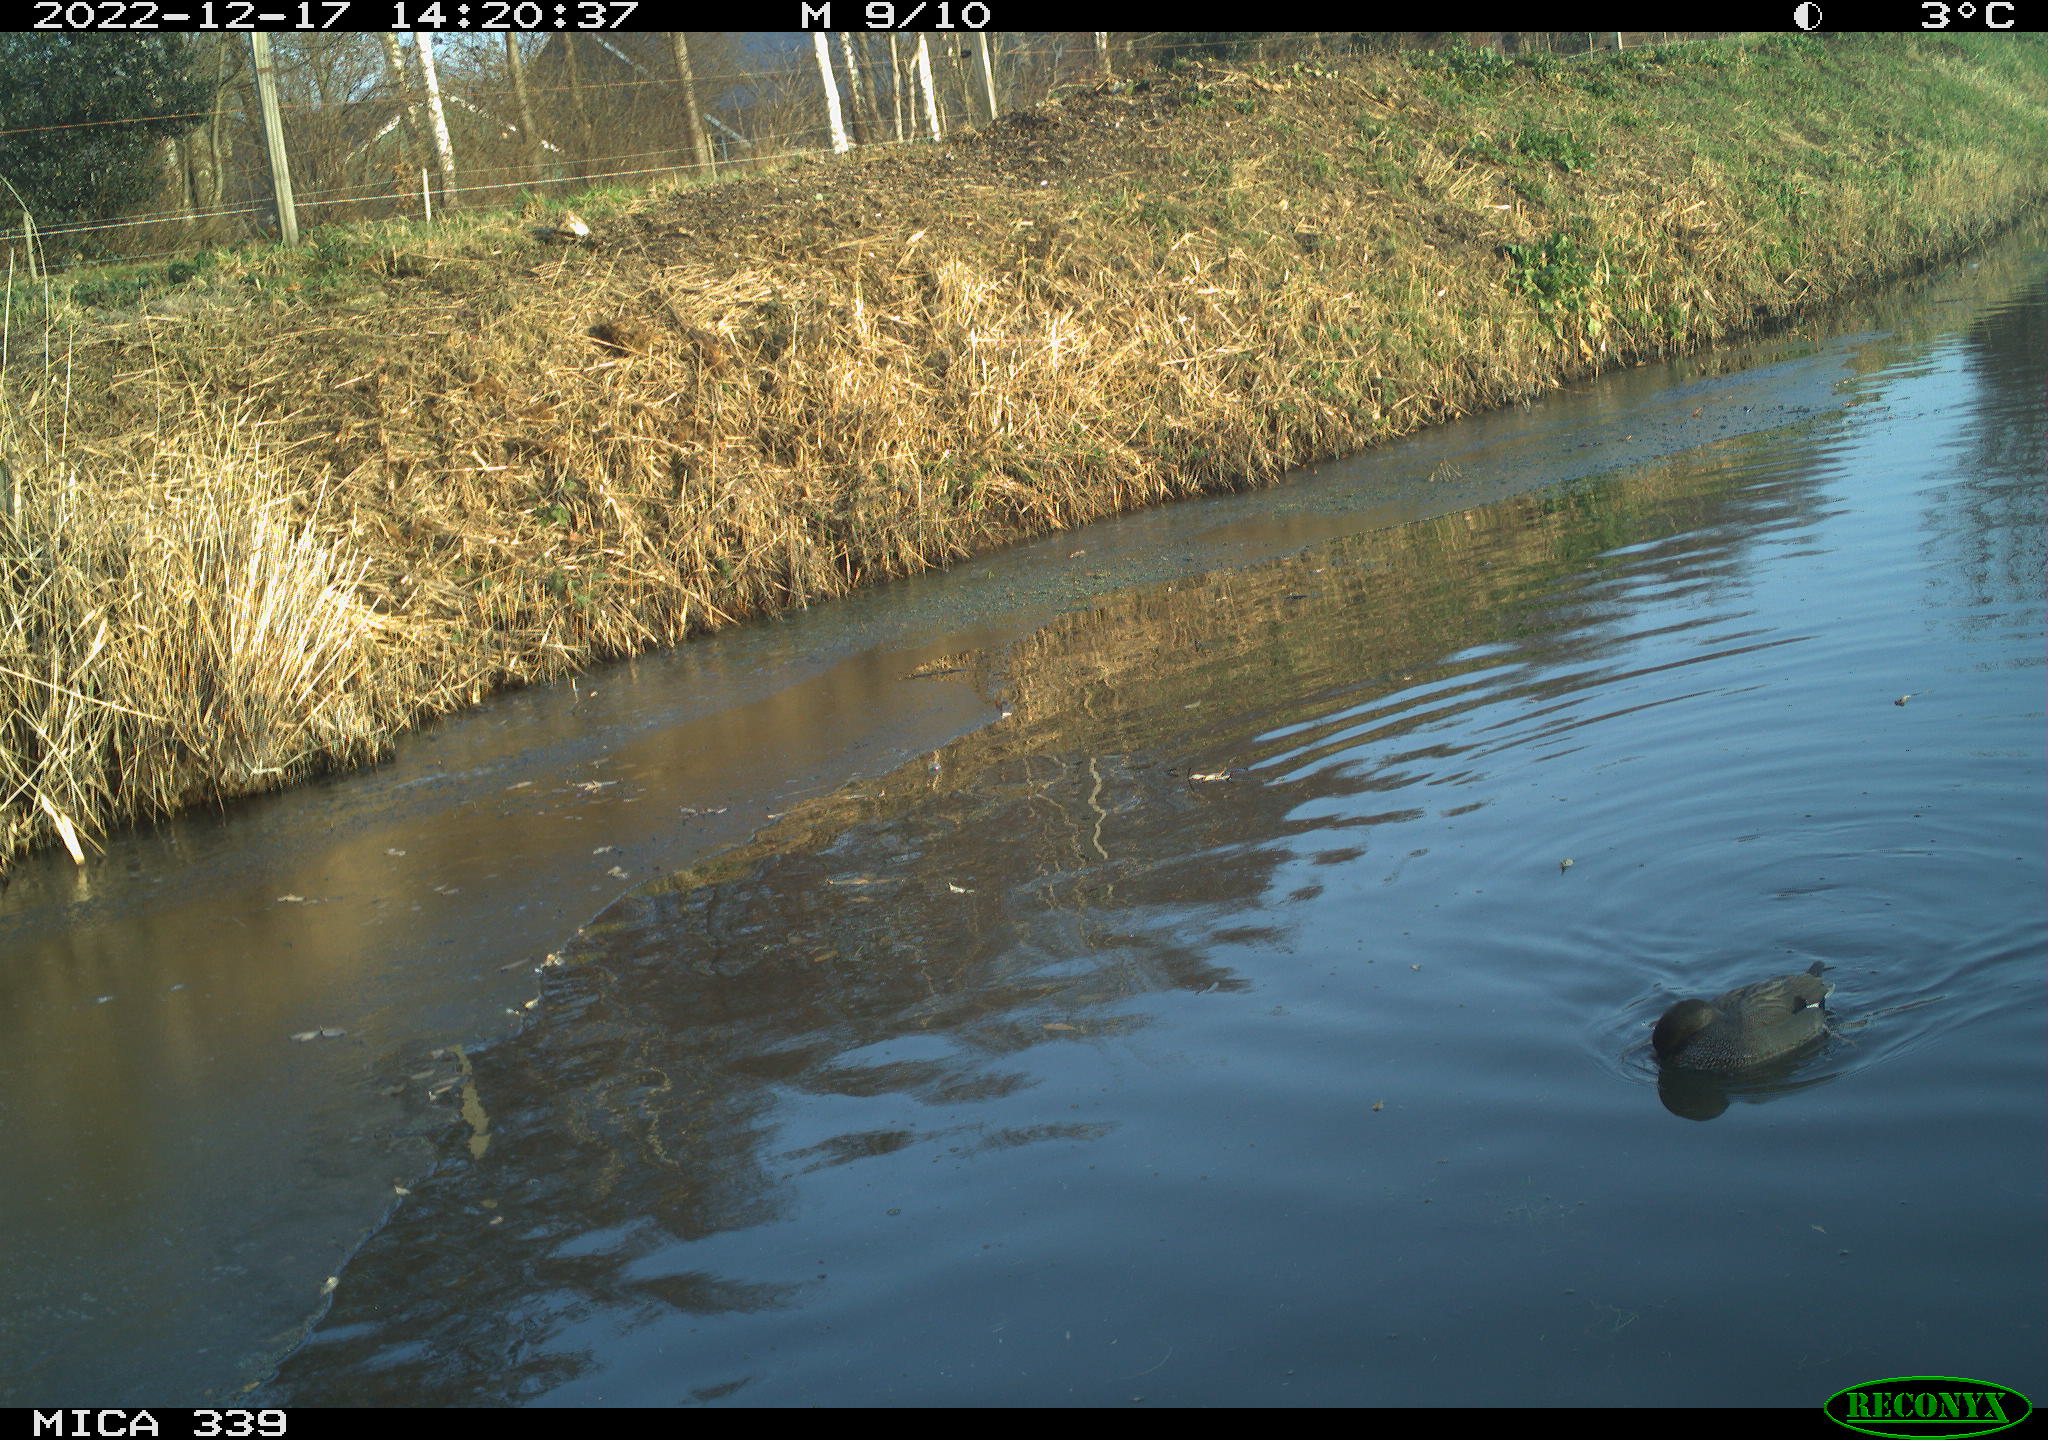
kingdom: Animalia
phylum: Chordata
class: Aves
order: Anseriformes
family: Anatidae
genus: Anas
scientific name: Anas
